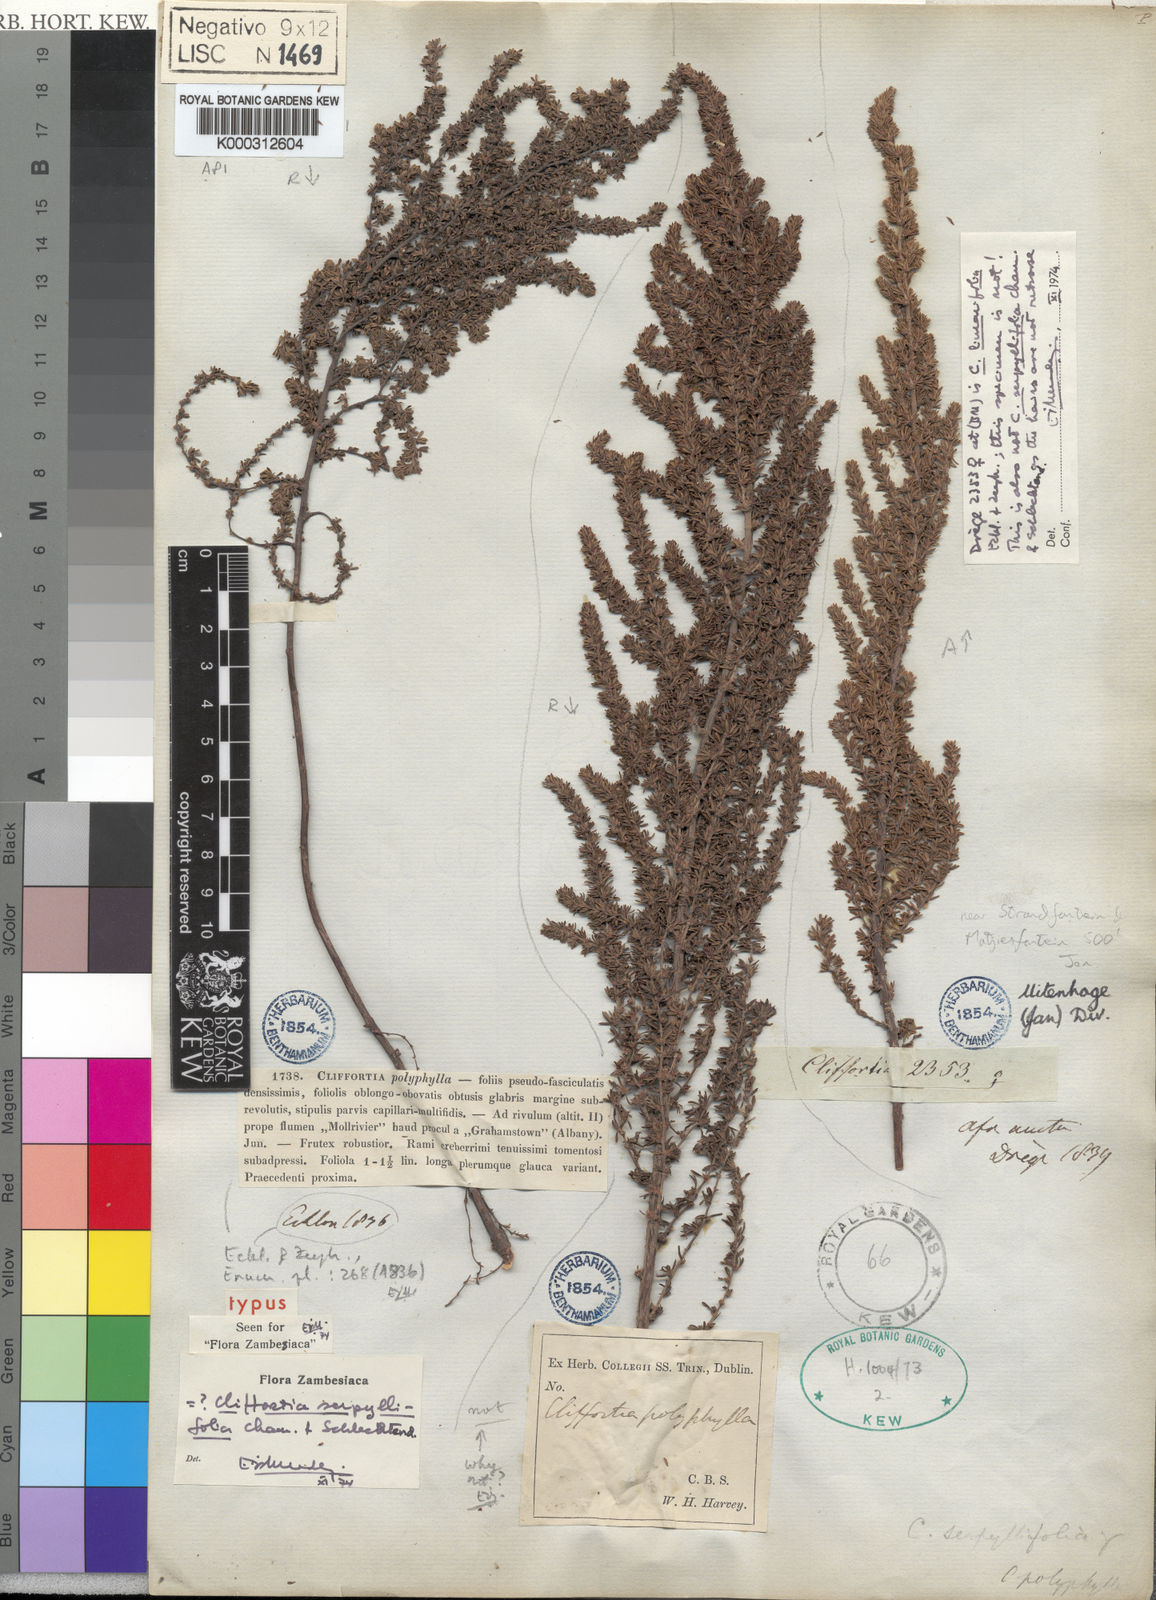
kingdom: Plantae
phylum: Tracheophyta
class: Magnoliopsida
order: Rosales
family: Rosaceae
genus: Cliffortia
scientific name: Cliffortia
